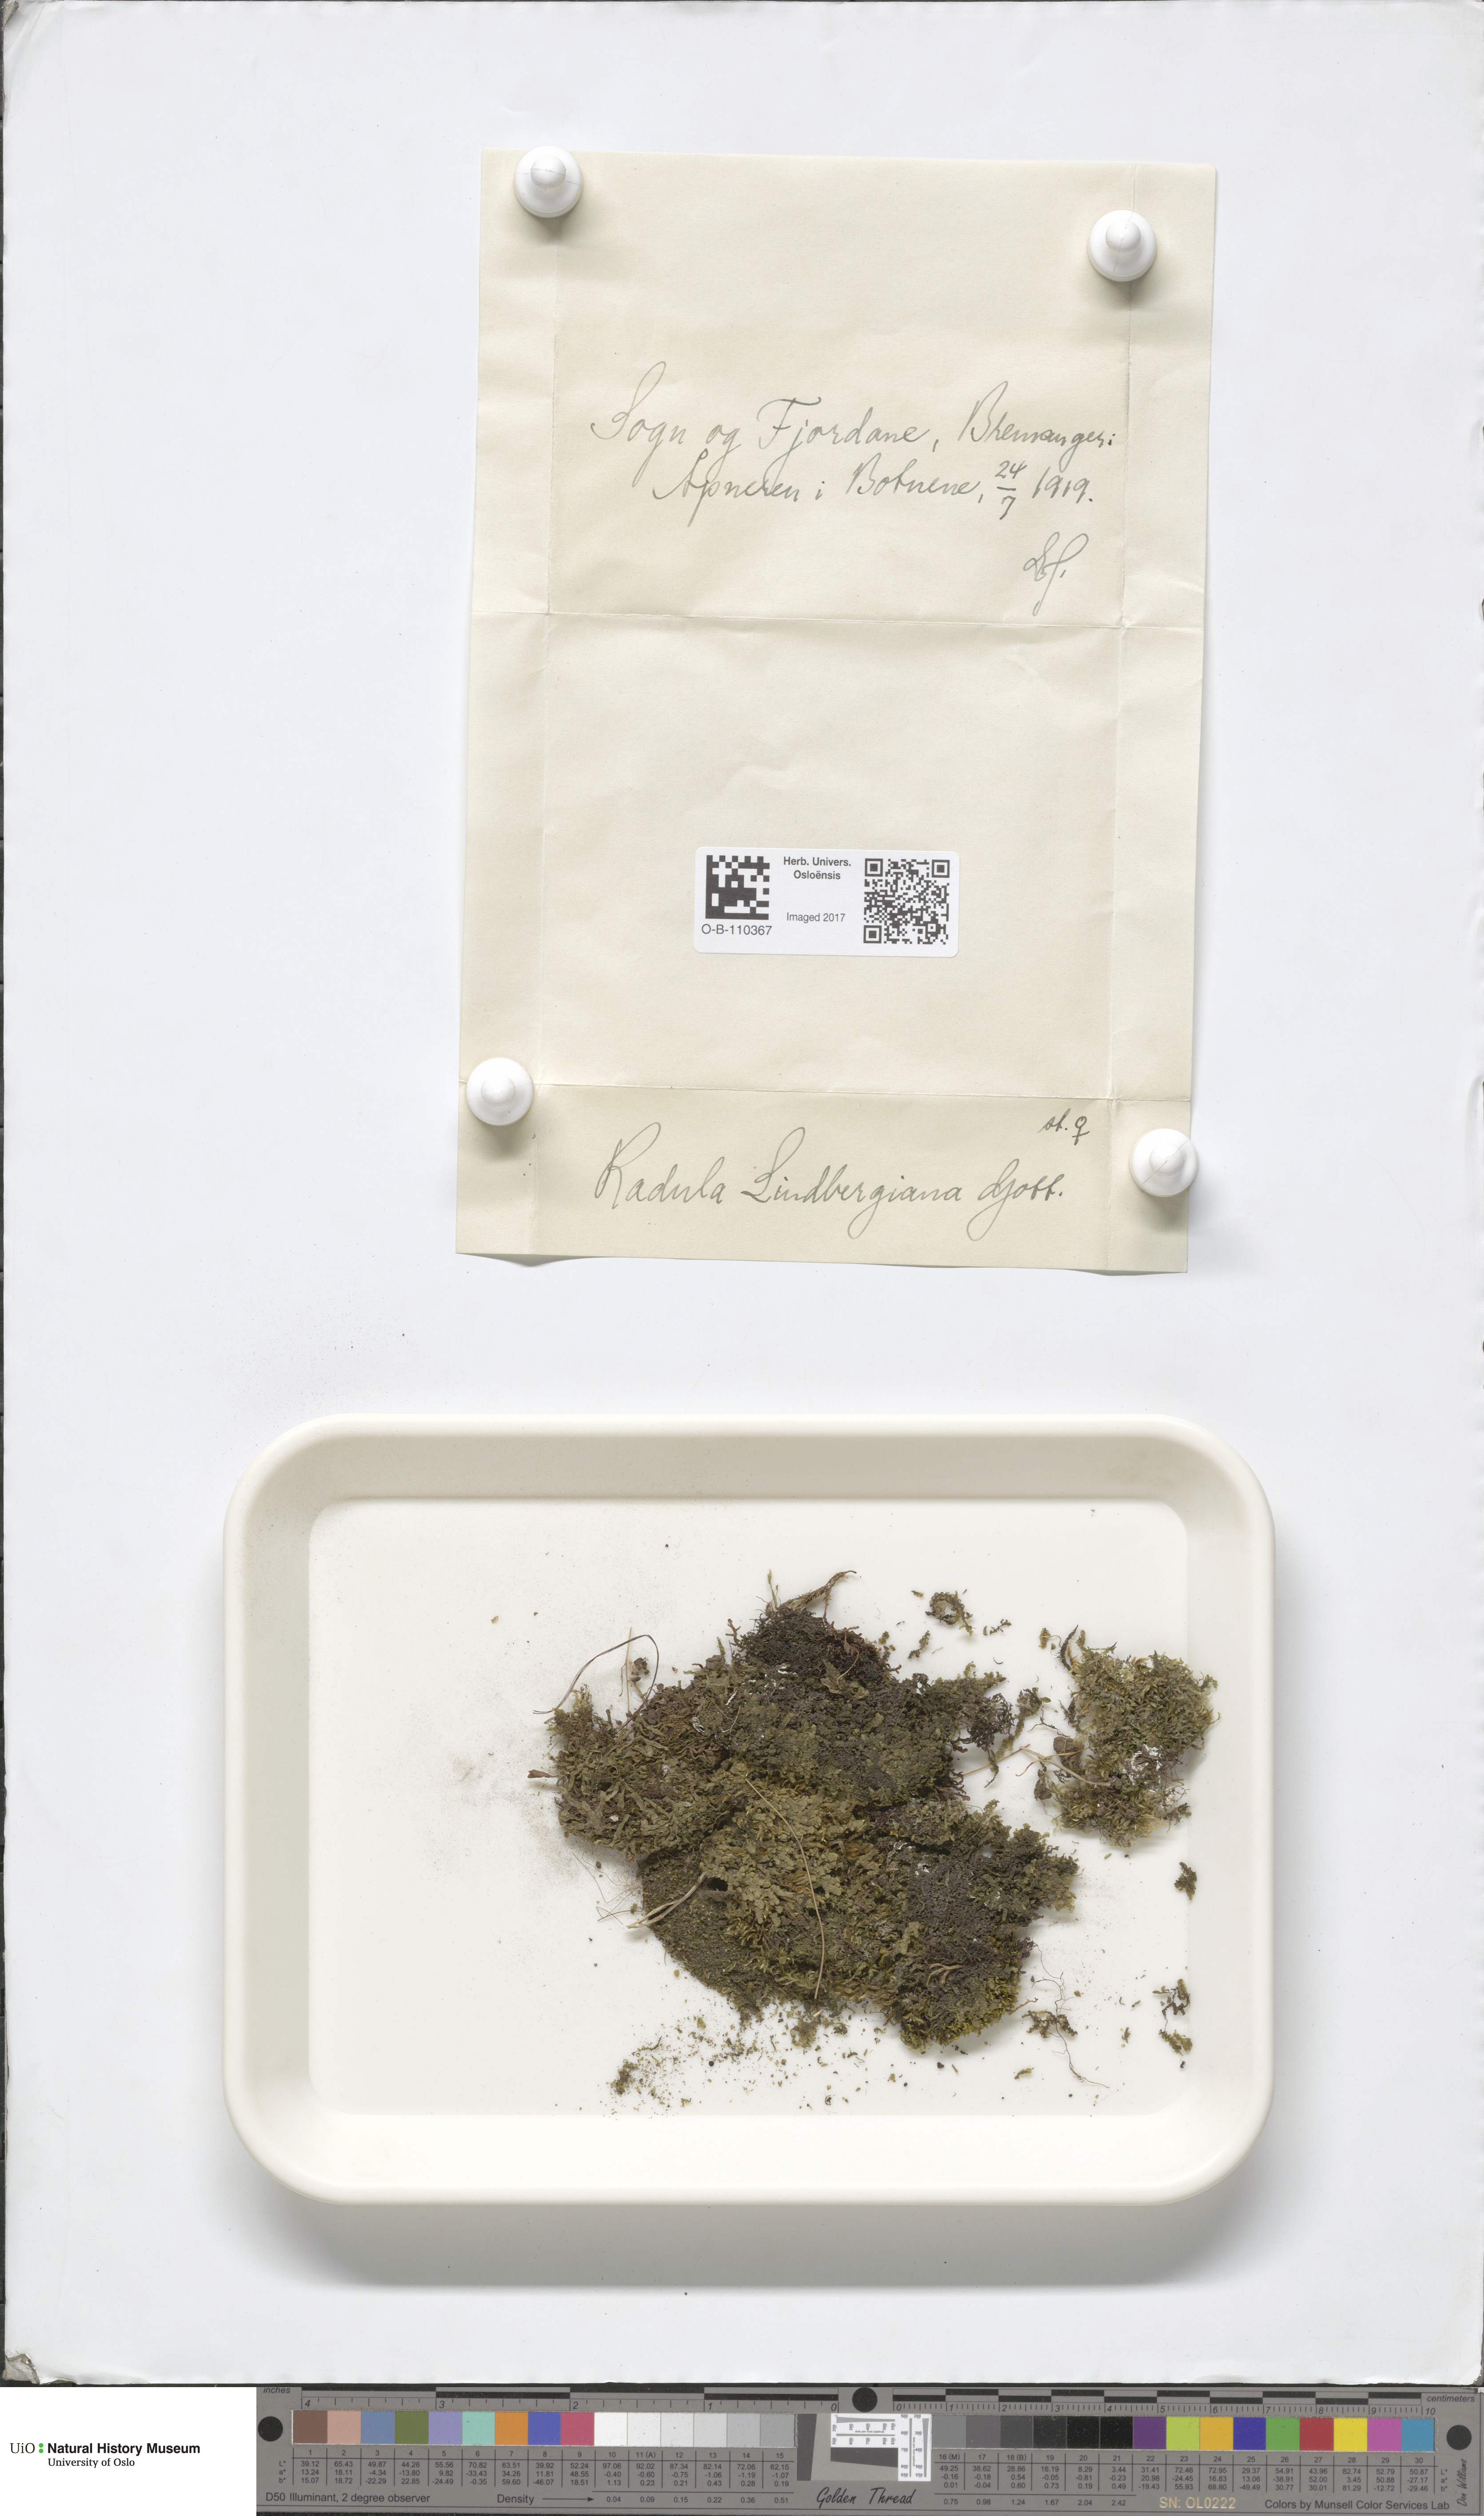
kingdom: Plantae
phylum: Marchantiophyta
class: Jungermanniopsida
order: Porellales
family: Radulaceae
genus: Radula
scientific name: Radula complanata
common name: Flat-leaved scalewort
